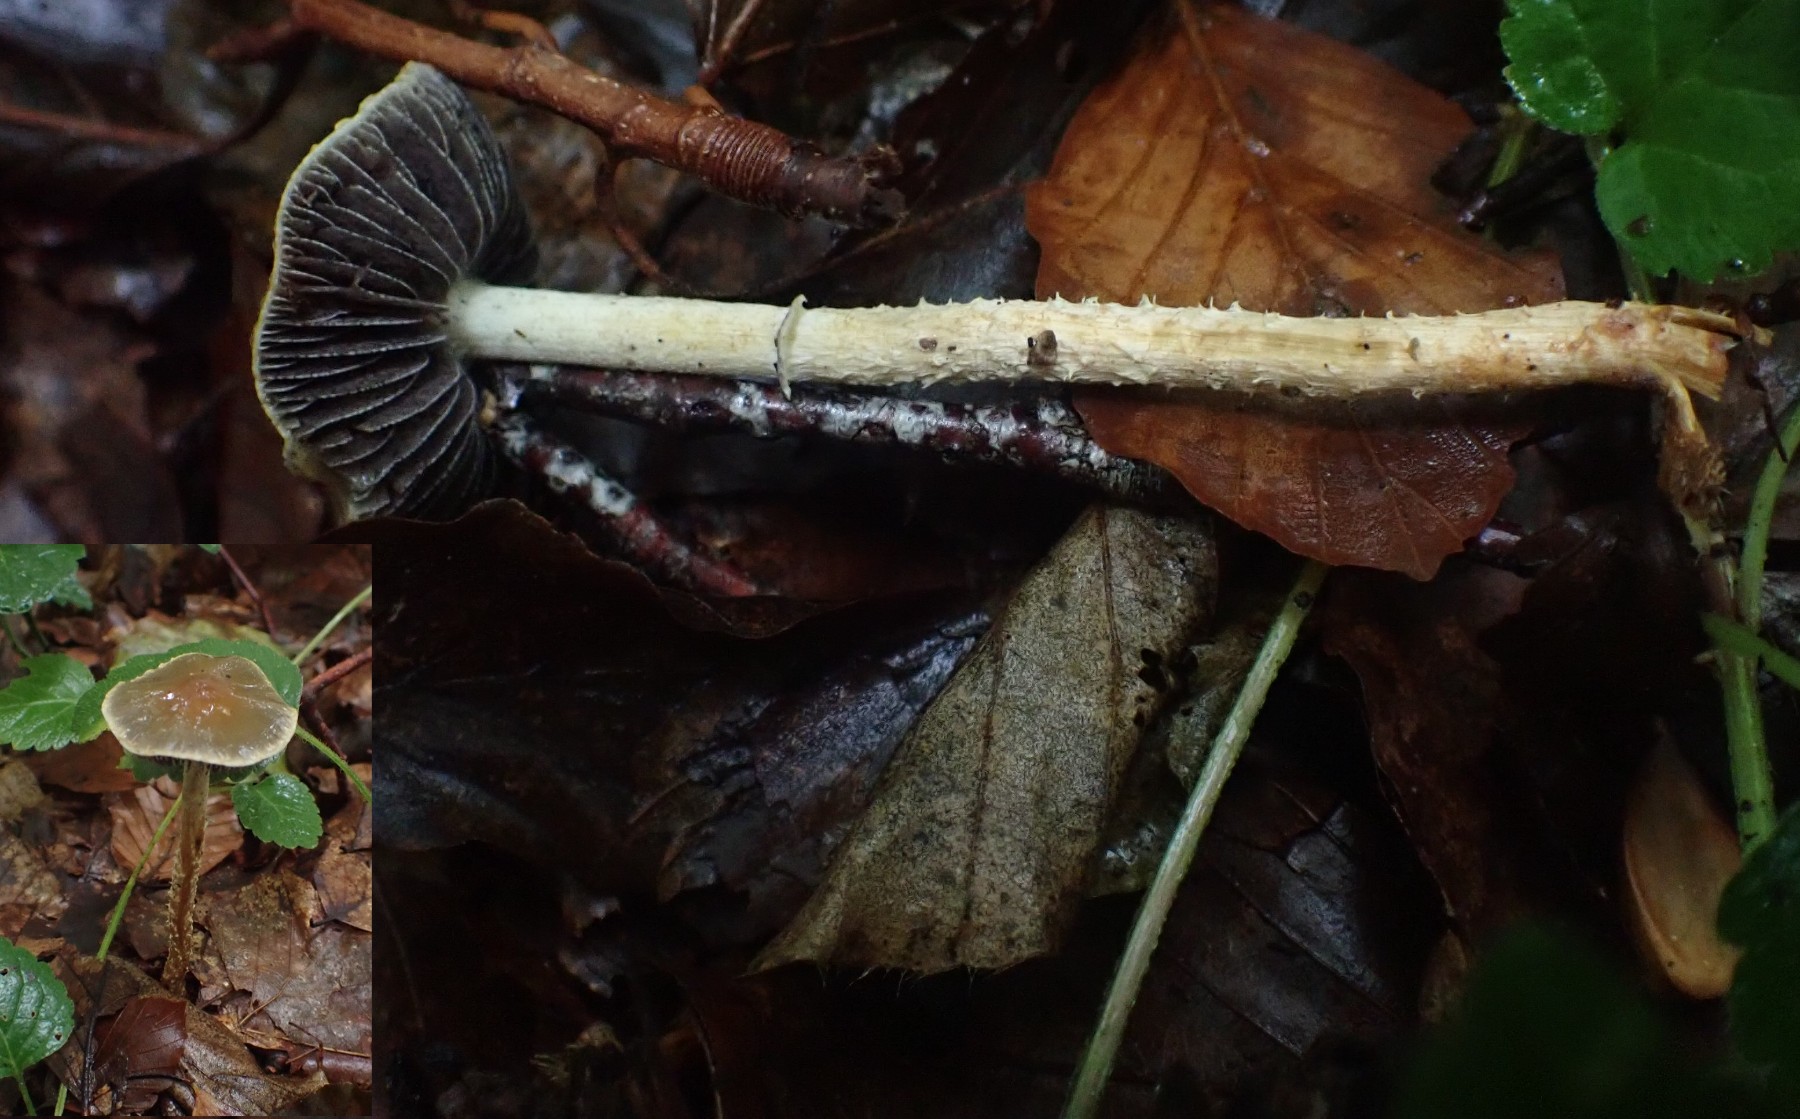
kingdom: Fungi
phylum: Basidiomycota
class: Agaricomycetes
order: Agaricales
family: Strophariaceae
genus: Leratiomyces
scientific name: Leratiomyces squamosus
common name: skællet bredblad
